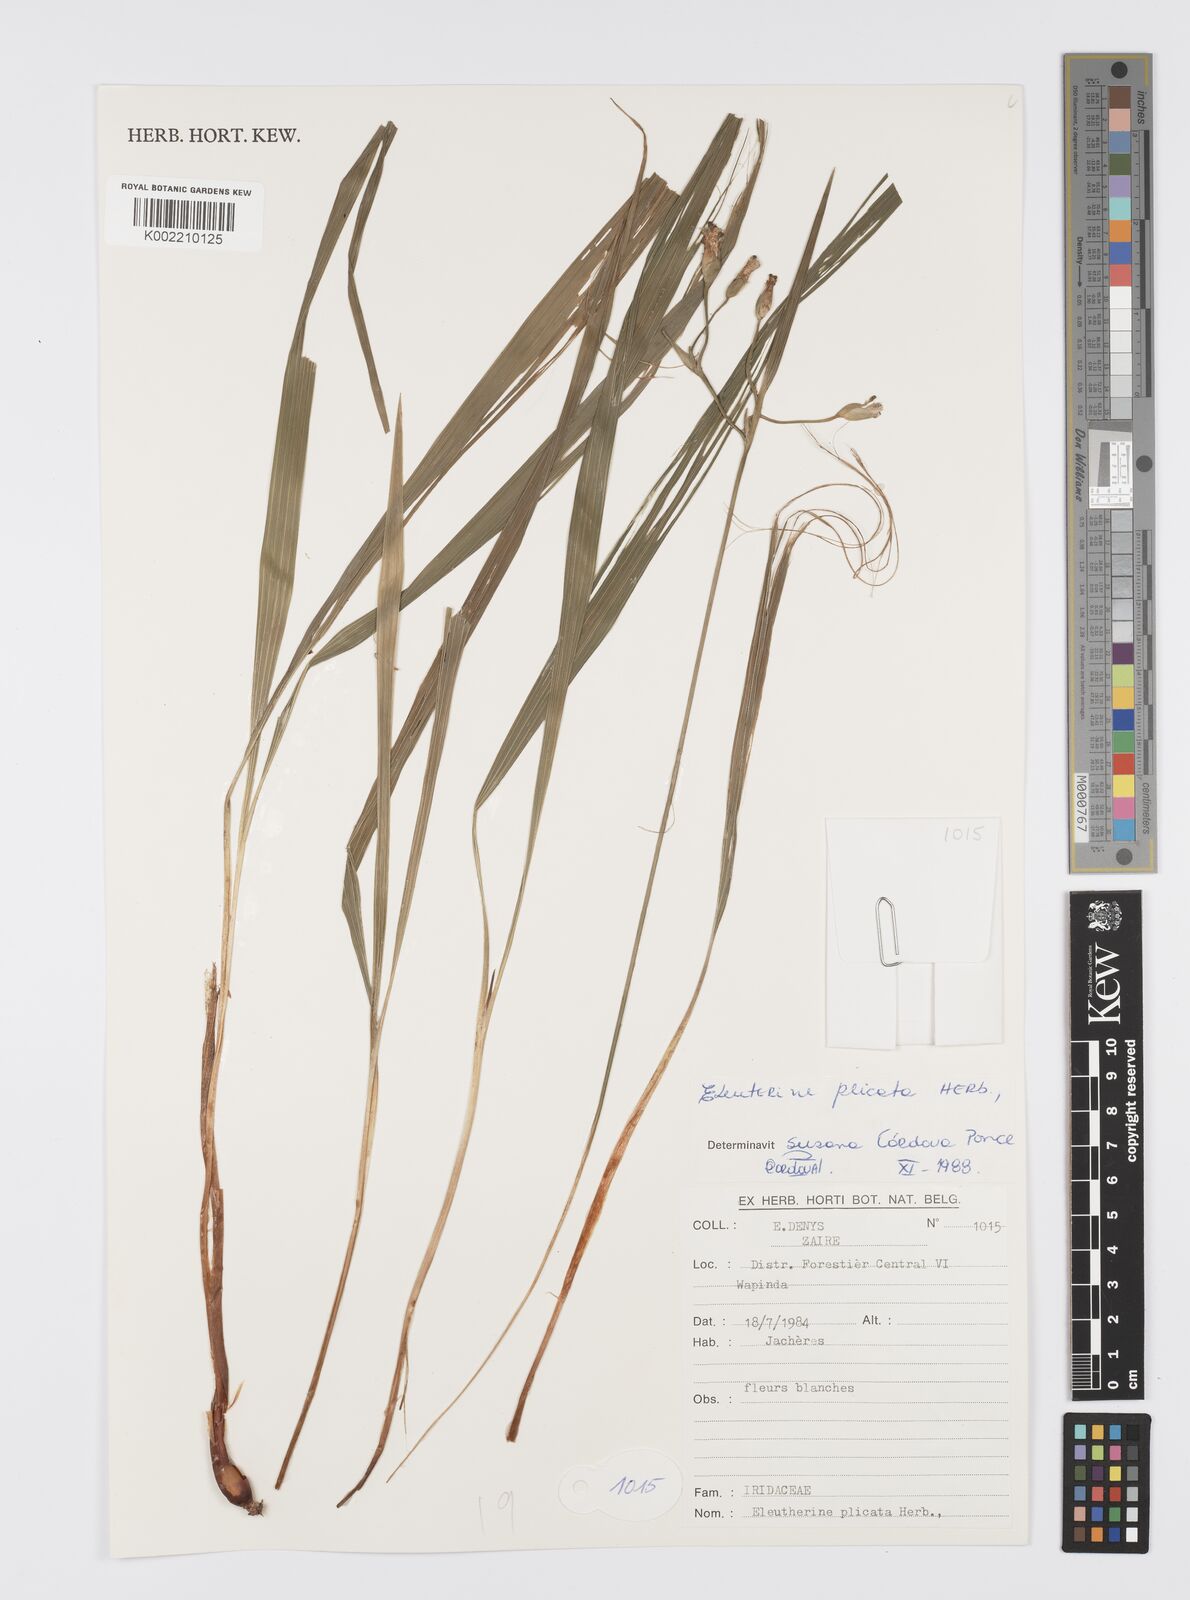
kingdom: Plantae
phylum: Tracheophyta
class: Liliopsida
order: Asparagales
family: Iridaceae
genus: Eleutherine
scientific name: Eleutherine bulbosa
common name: Lagrimas de la virgen
